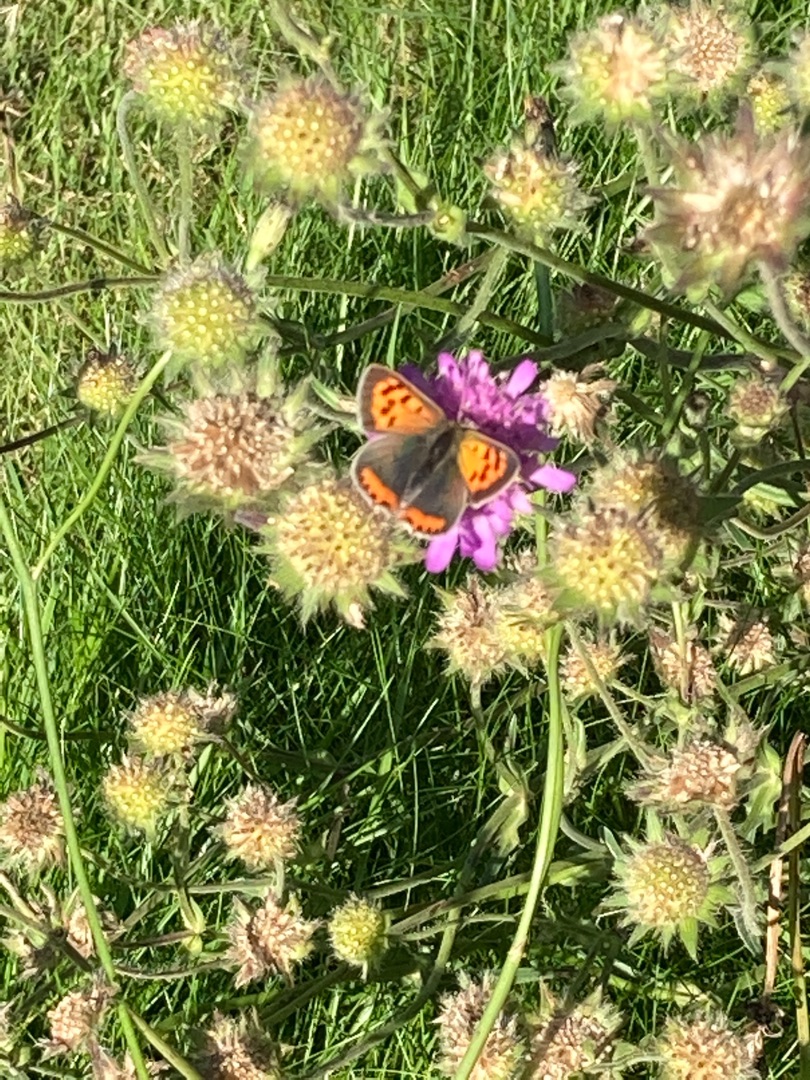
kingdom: Animalia
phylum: Arthropoda
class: Insecta
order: Lepidoptera
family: Lycaenidae
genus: Lycaena
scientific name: Lycaena phlaeas
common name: Lille ildfugl
